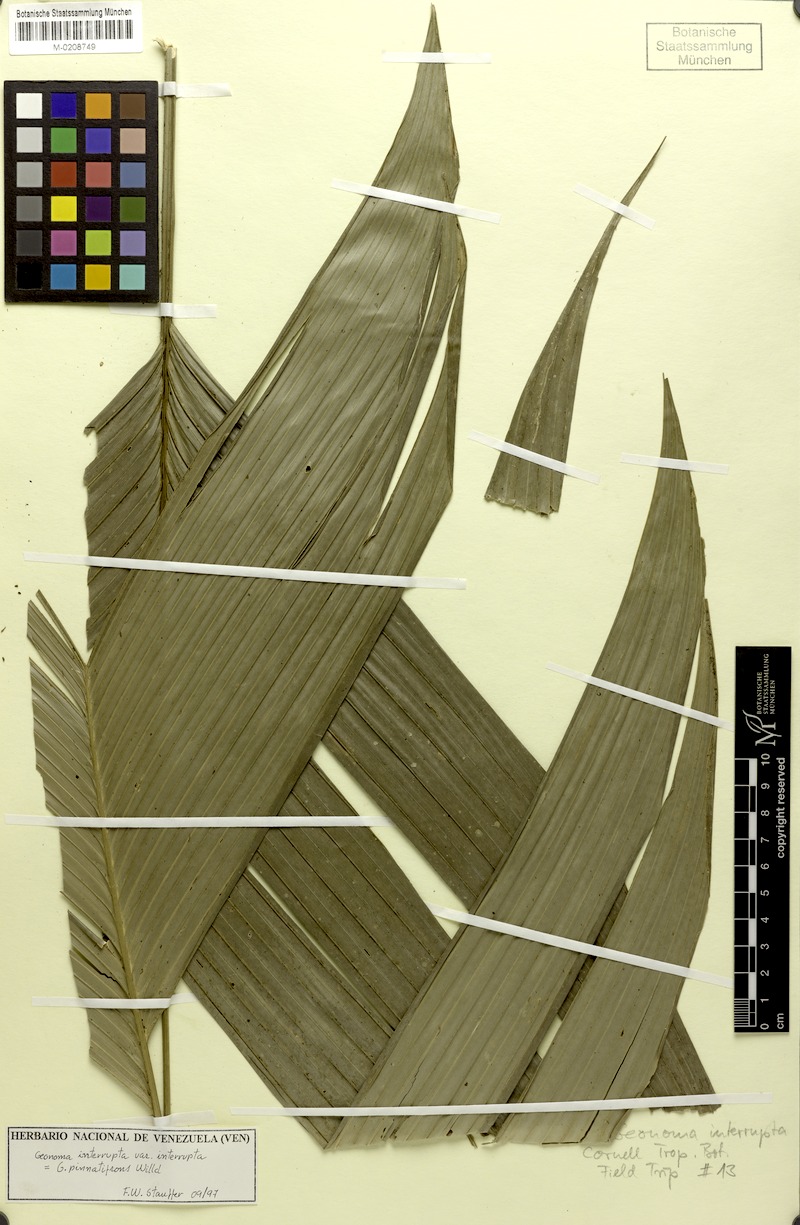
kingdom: Plantae
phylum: Tracheophyta
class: Liliopsida
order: Arecales
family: Arecaceae
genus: Geonoma
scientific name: Geonoma interrupta
